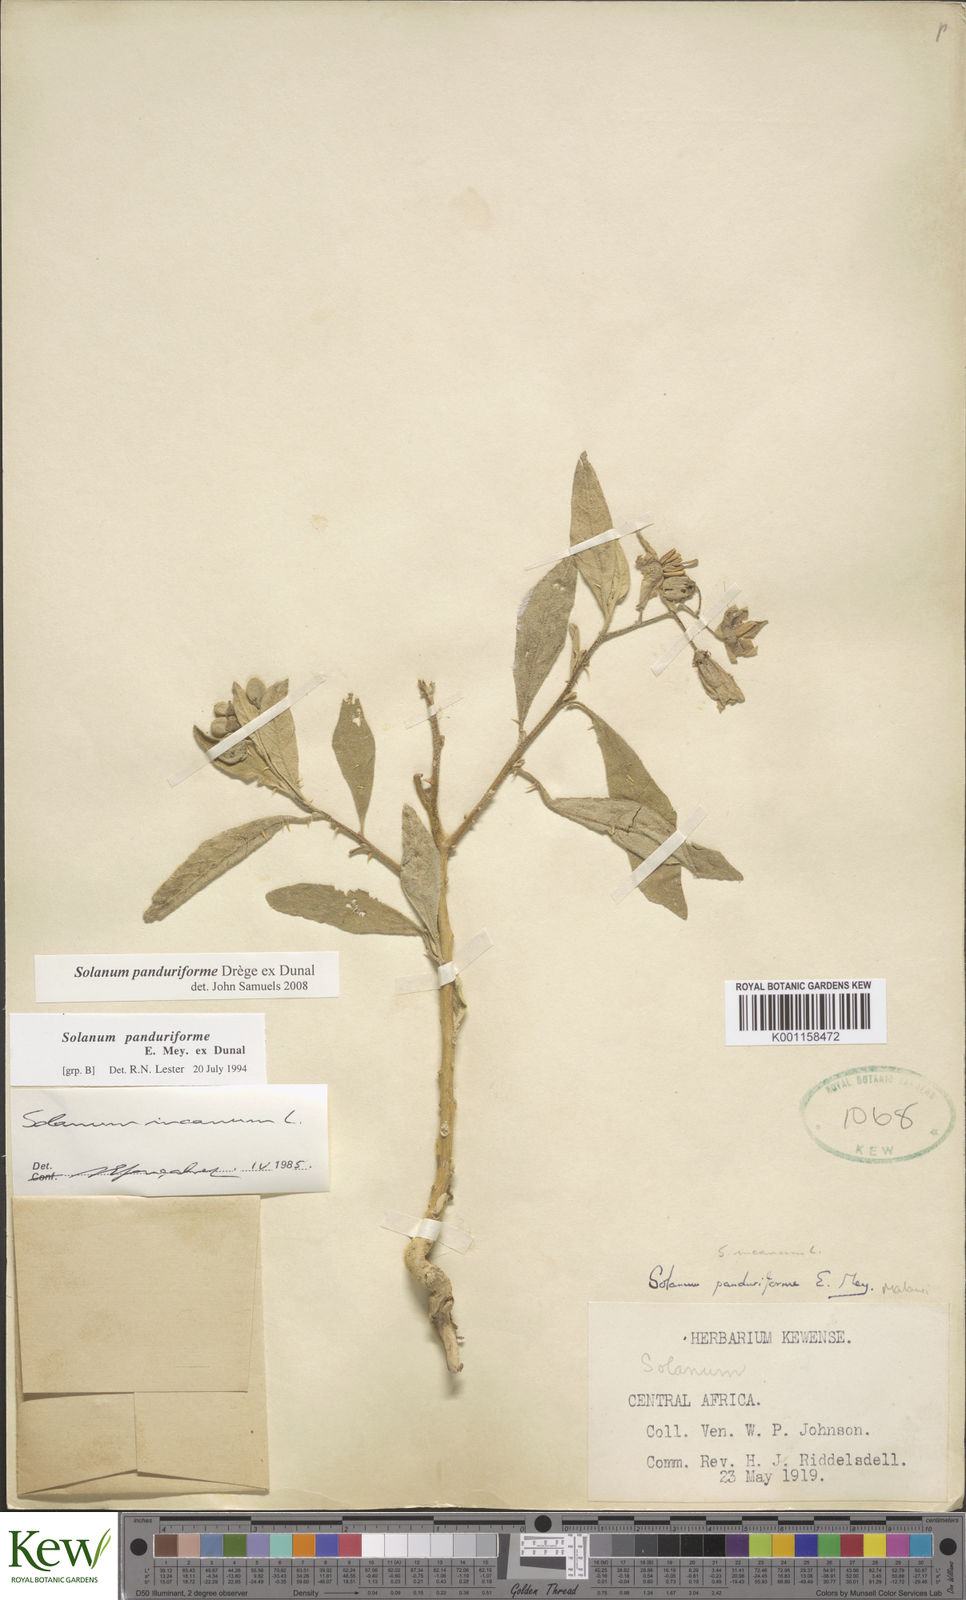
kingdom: Plantae
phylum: Tracheophyta
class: Magnoliopsida
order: Solanales
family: Solanaceae
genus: Solanum
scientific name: Solanum campylacanthum
